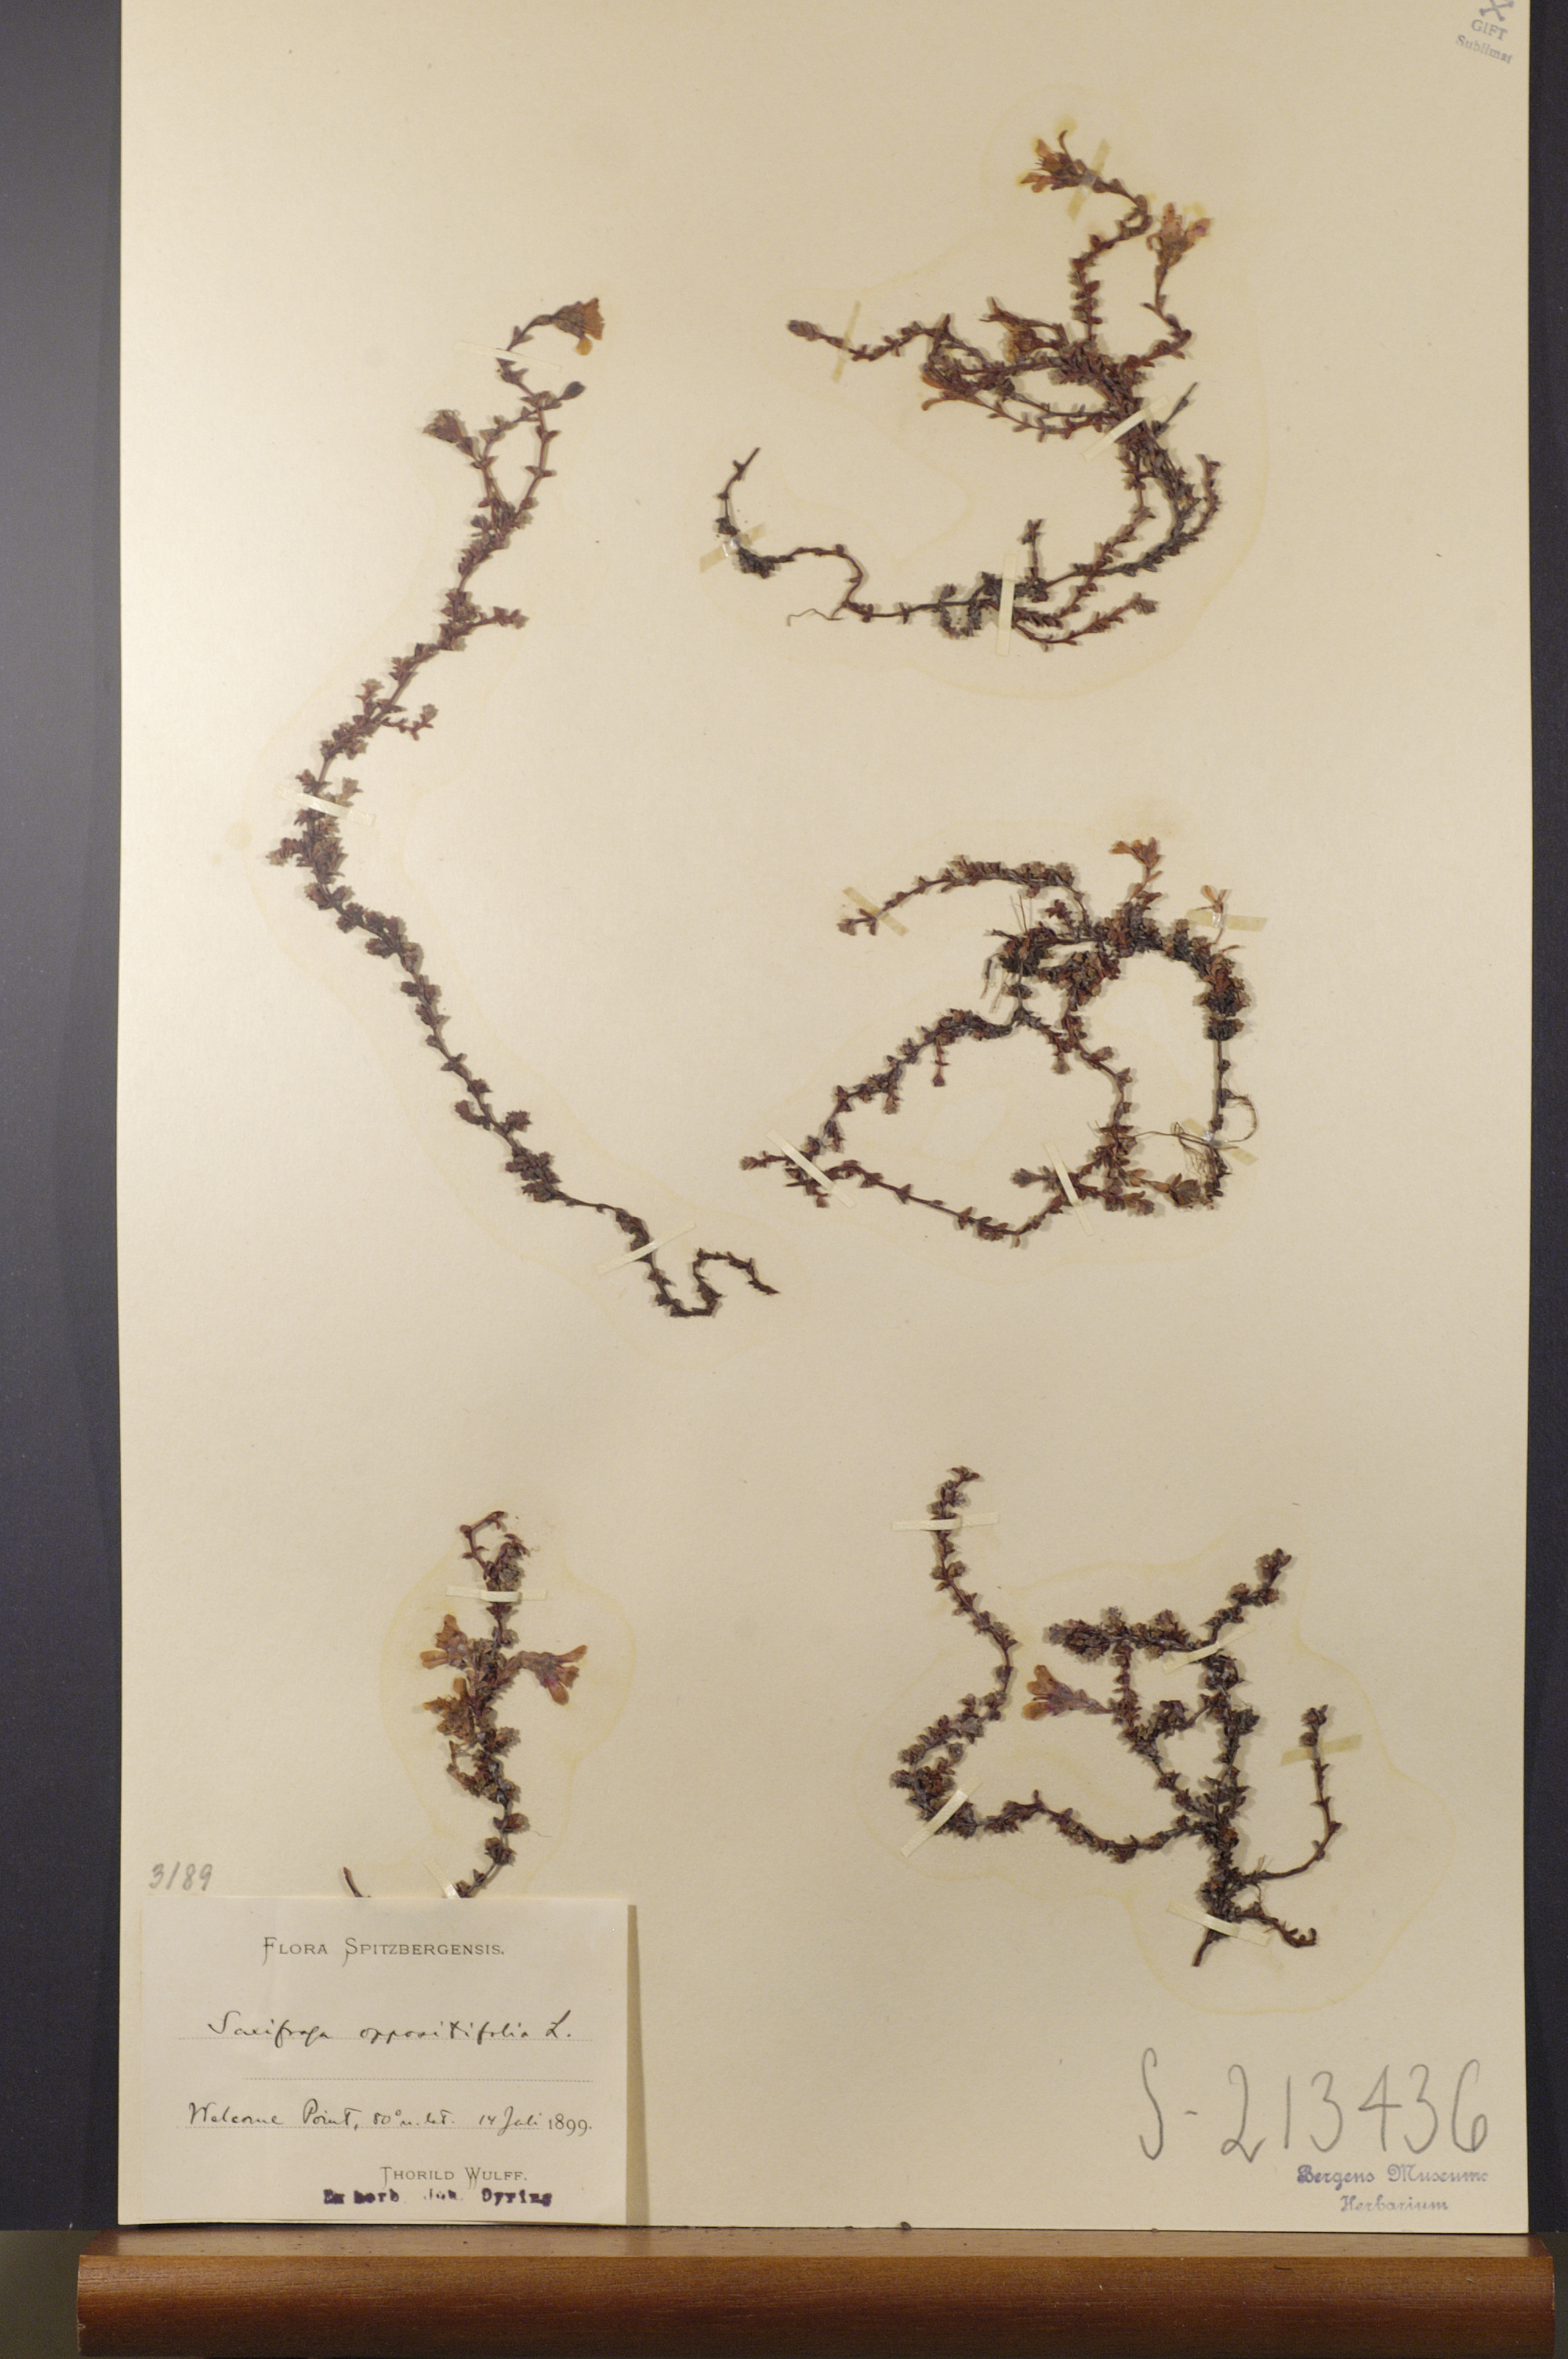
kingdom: Plantae
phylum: Tracheophyta
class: Magnoliopsida
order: Saxifragales
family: Saxifragaceae
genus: Saxifraga
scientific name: Saxifraga oppositifolia
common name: Purple saxifrage
